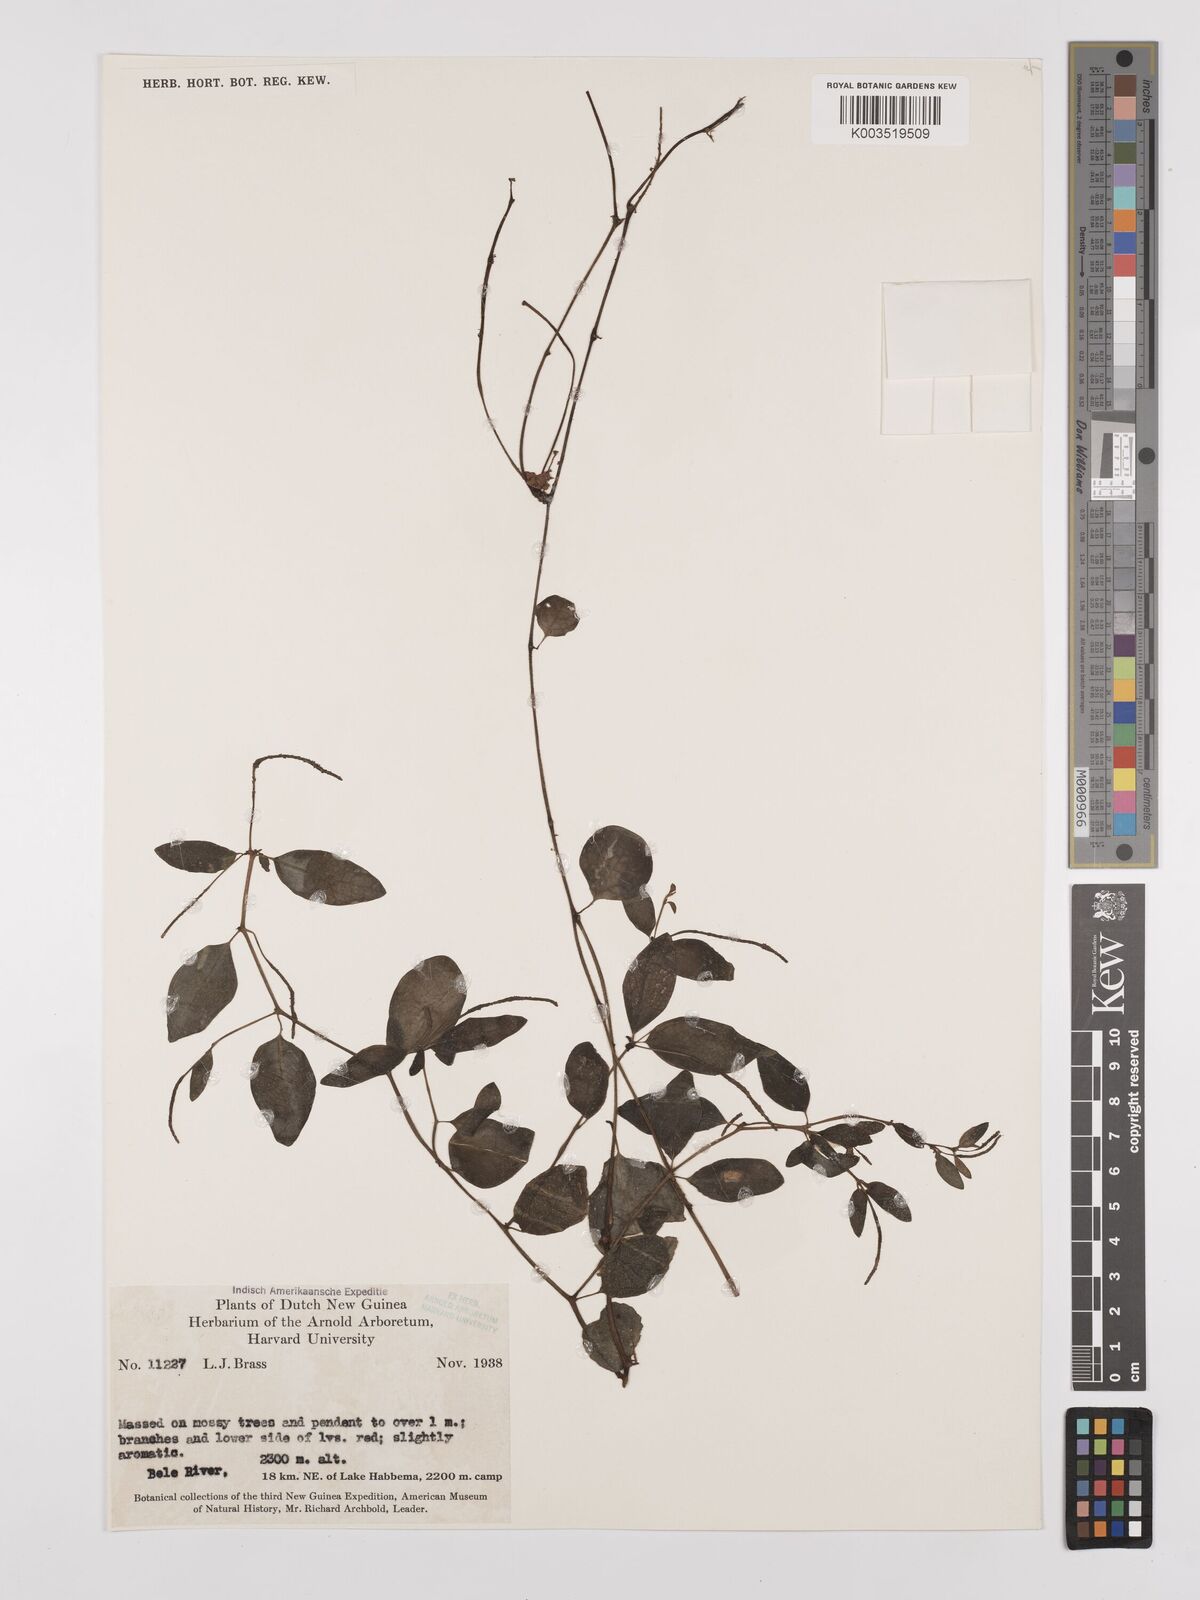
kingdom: Plantae
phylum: Tracheophyta
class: Magnoliopsida
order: Piperales
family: Piperaceae
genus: Peperomia
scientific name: Peperomia
